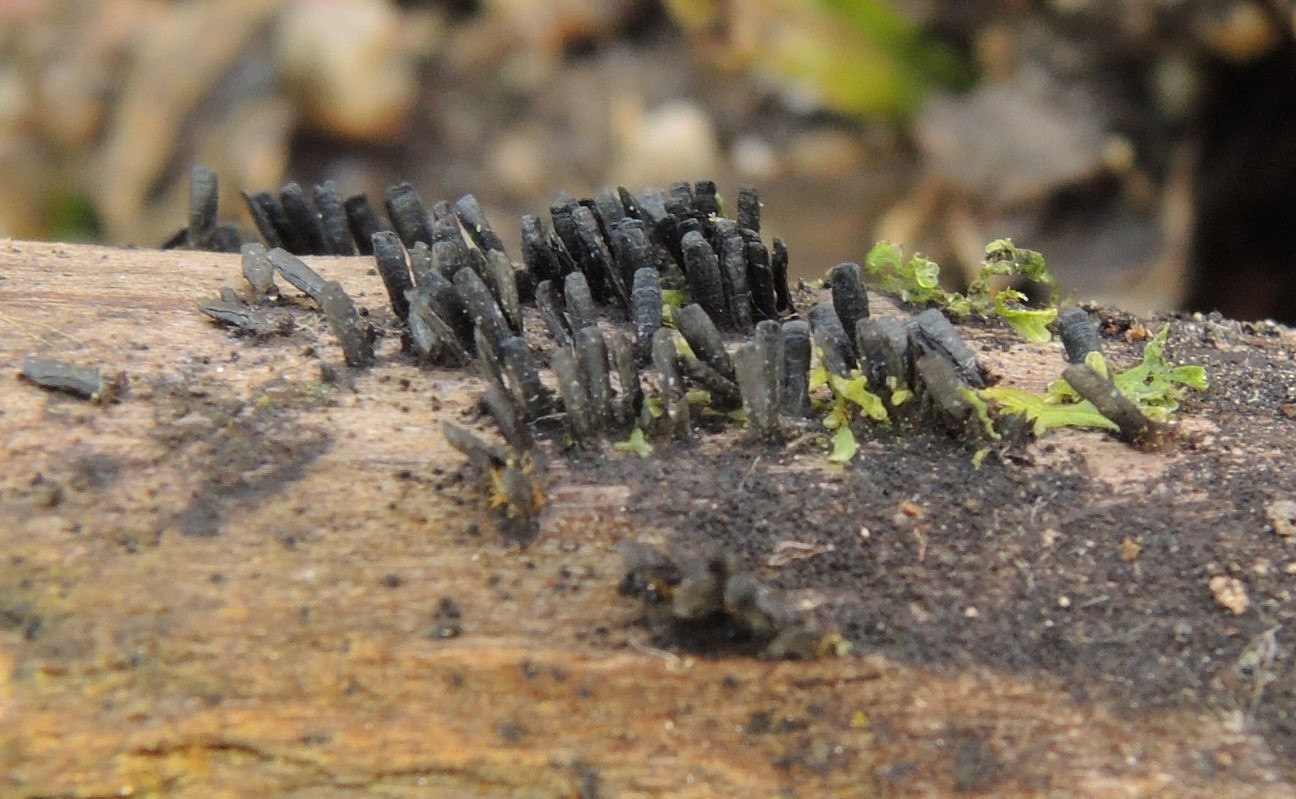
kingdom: Fungi
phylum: Ascomycota
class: Eurotiomycetes
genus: Glyphium
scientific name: Glyphium elatum
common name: kuløkse
